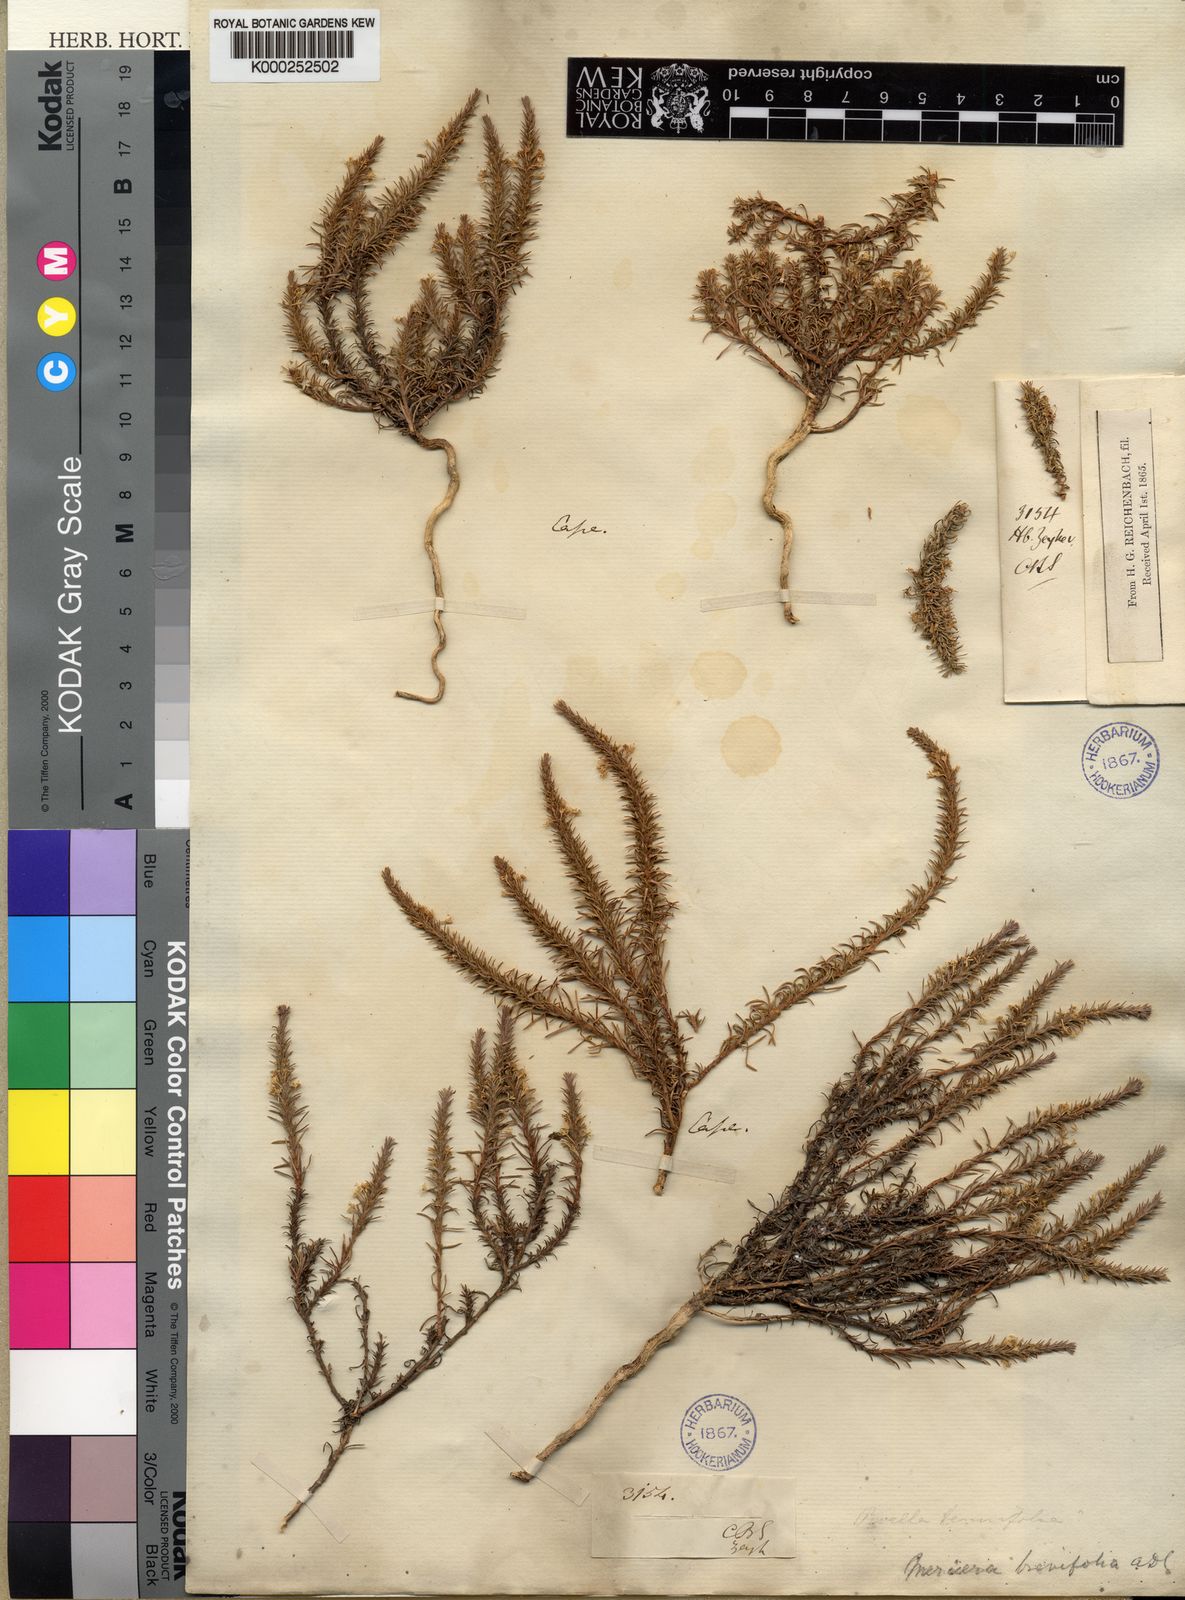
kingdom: Plantae
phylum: Tracheophyta
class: Magnoliopsida
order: Asterales
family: Campanulaceae
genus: Merciera
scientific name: Merciera brevifolia
